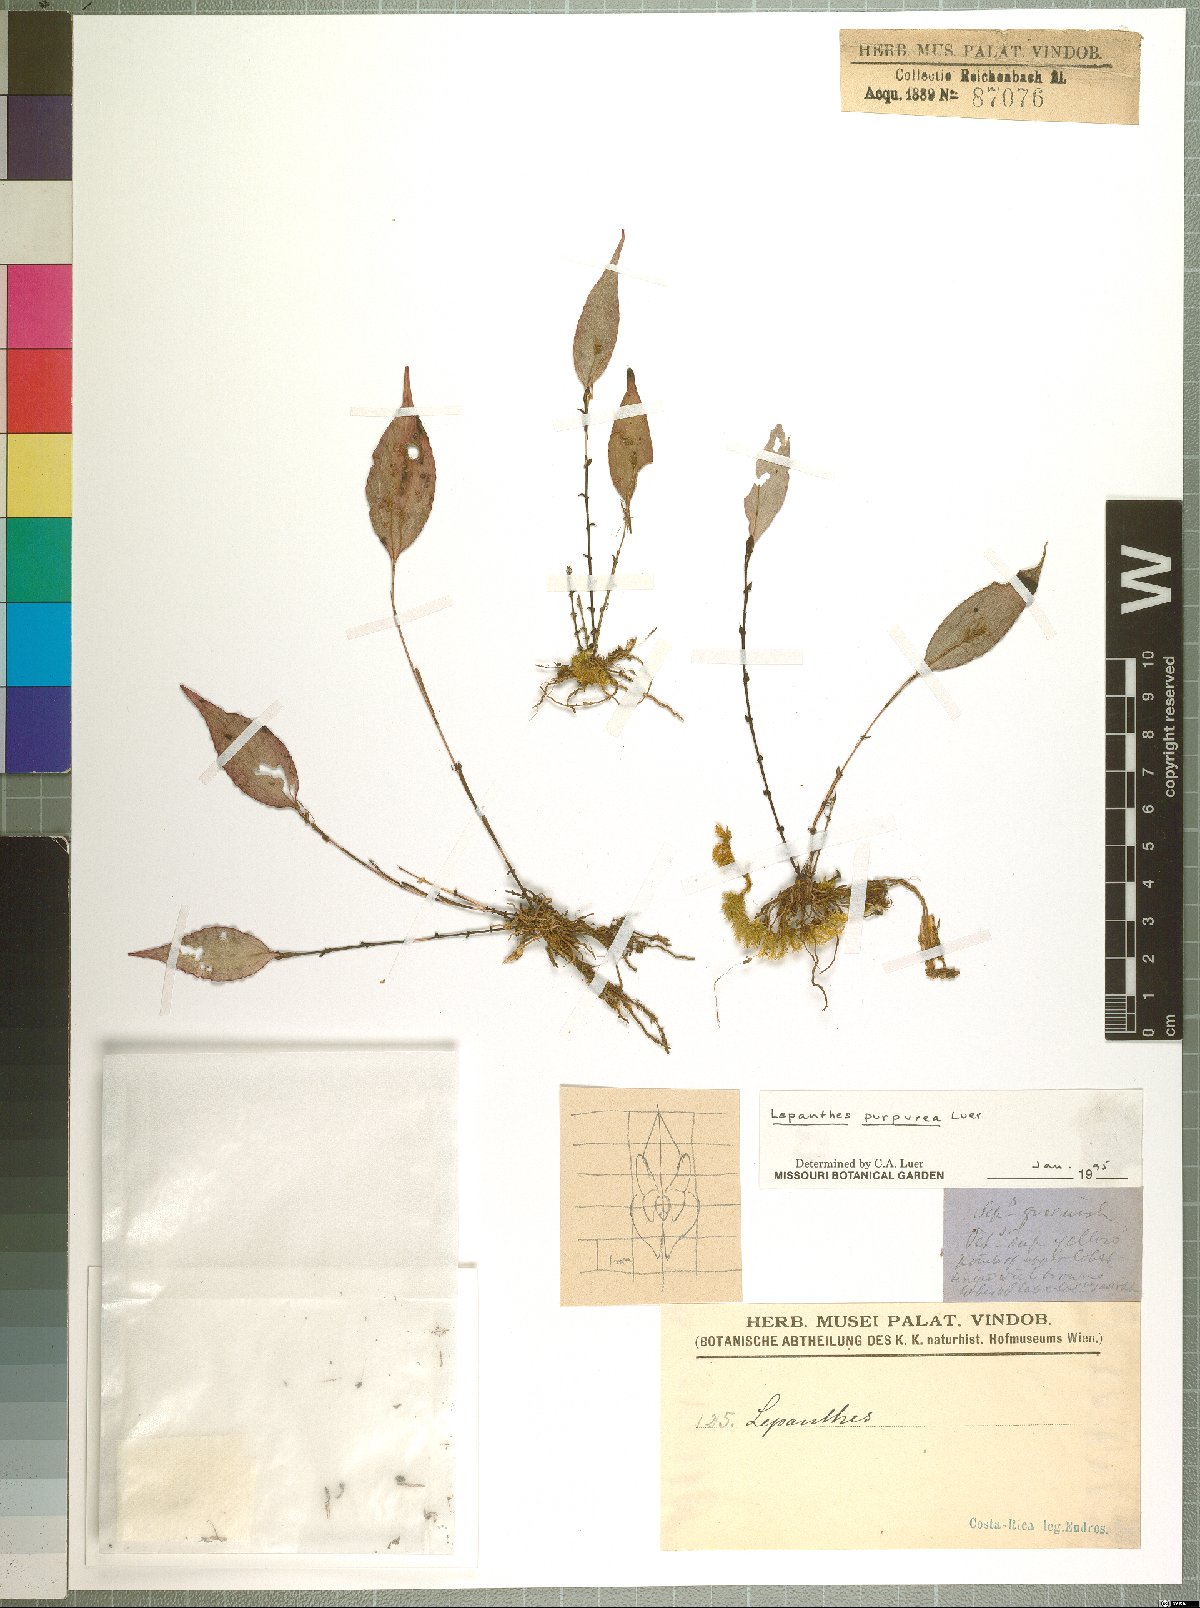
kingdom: Plantae
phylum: Tracheophyta
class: Liliopsida
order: Asparagales
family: Orchidaceae
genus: Lepanthes
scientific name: Lepanthes purpurea
